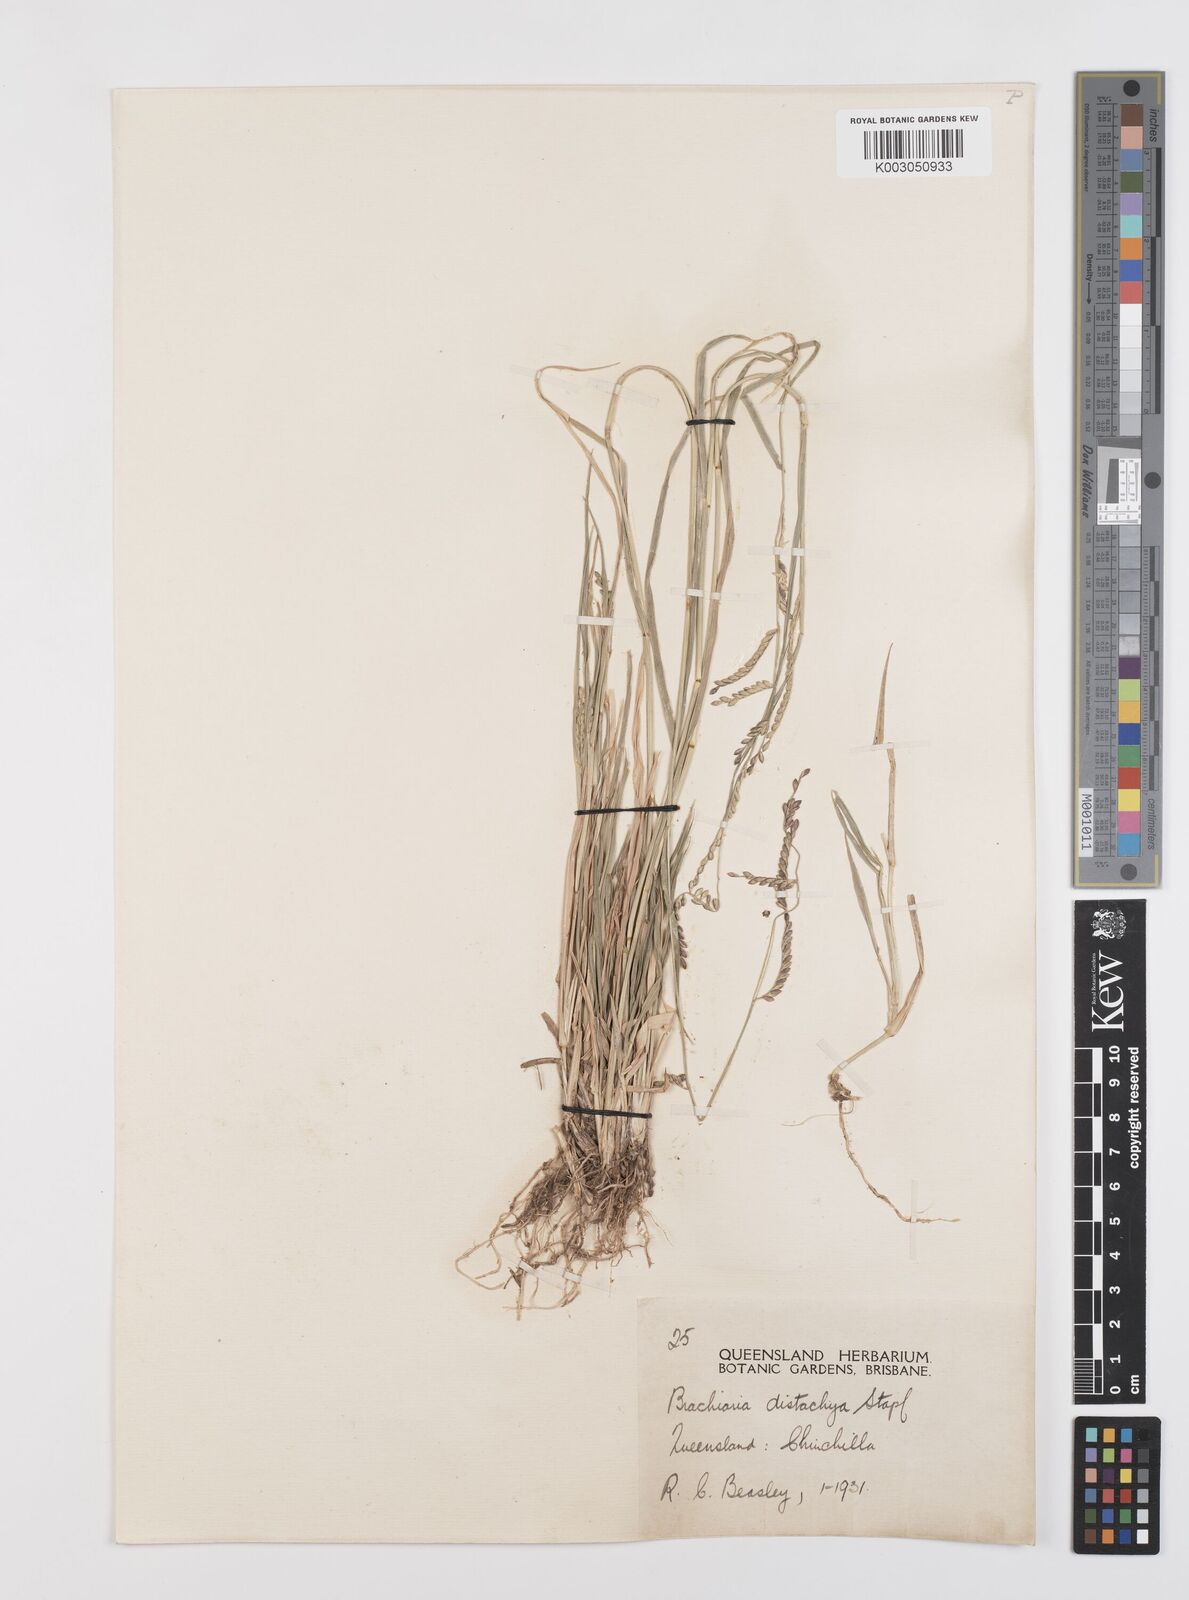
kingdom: Plantae
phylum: Tracheophyta
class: Liliopsida
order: Poales
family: Poaceae
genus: Urochloa
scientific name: Urochloa subquadripara
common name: Armgrass millet
